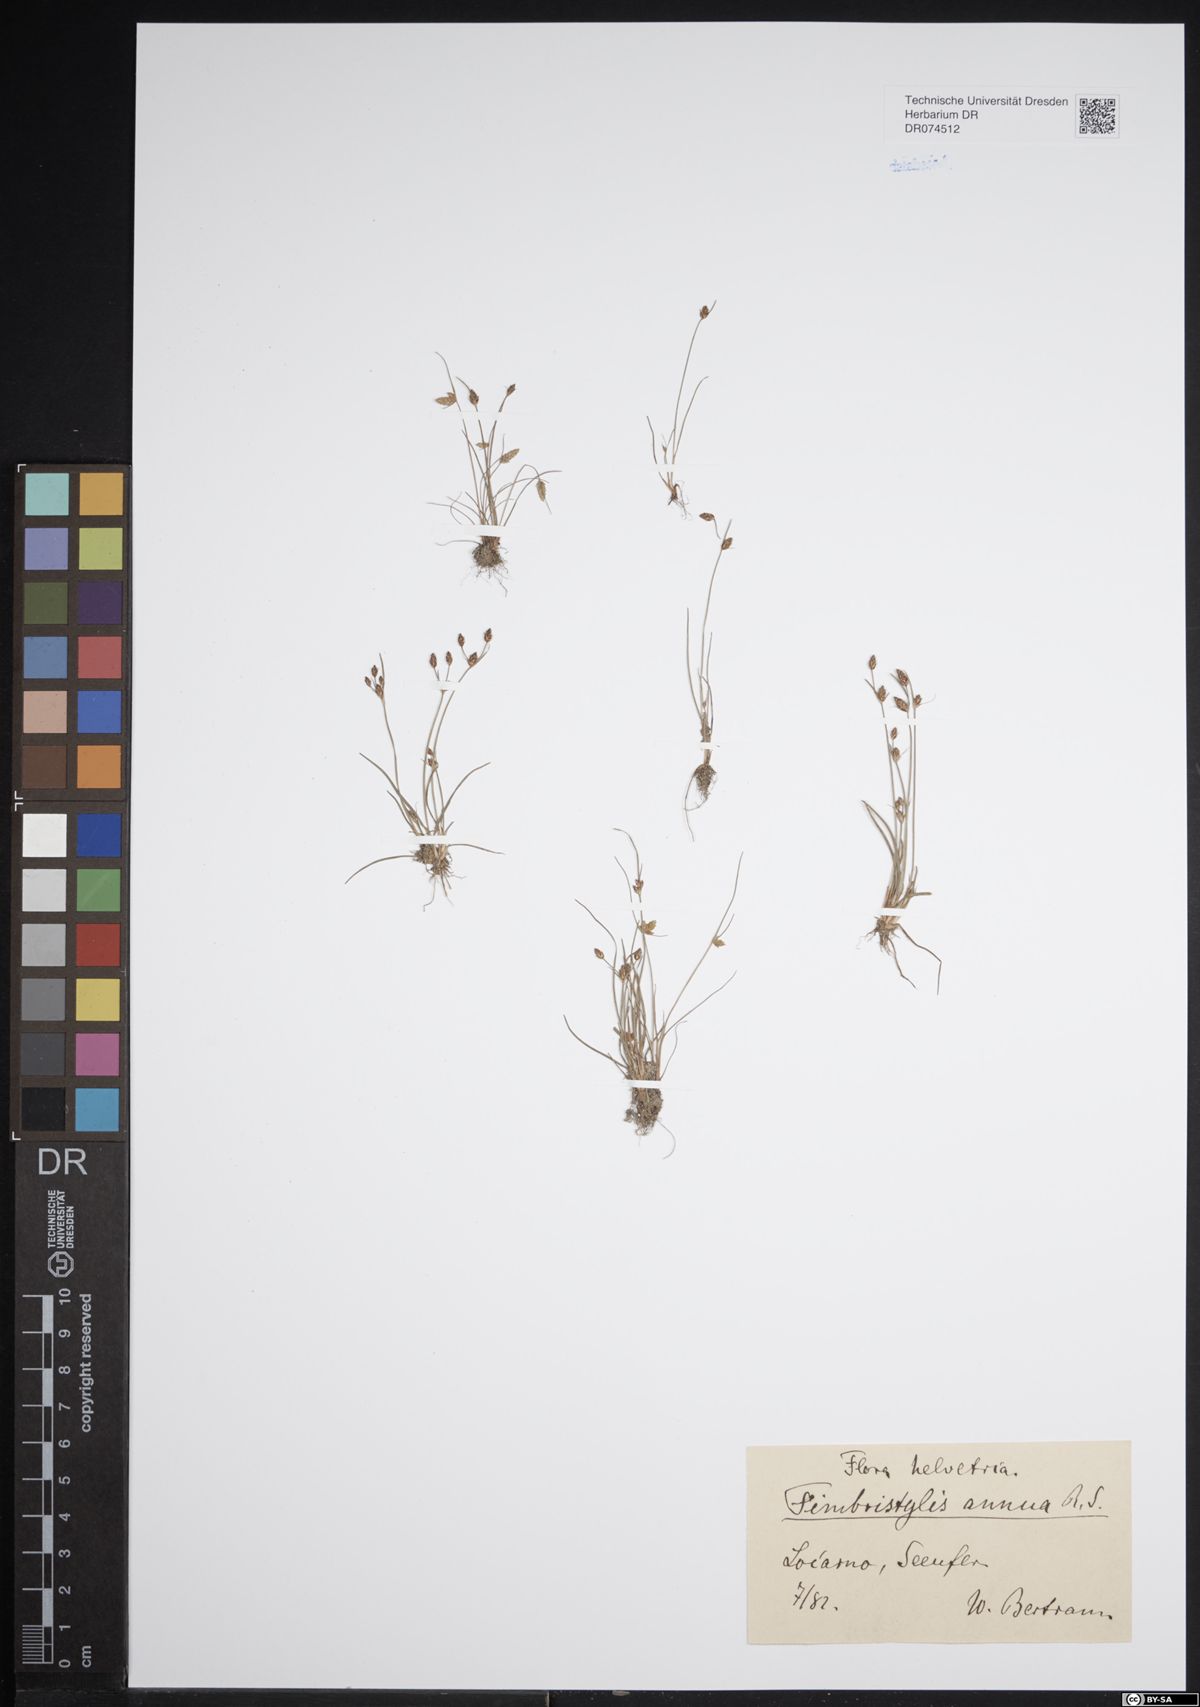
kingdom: Plantae
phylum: Tracheophyta
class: Liliopsida
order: Poales
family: Cyperaceae
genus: Fimbristylis
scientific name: Fimbristylis dichotoma
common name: Forked fimbry
